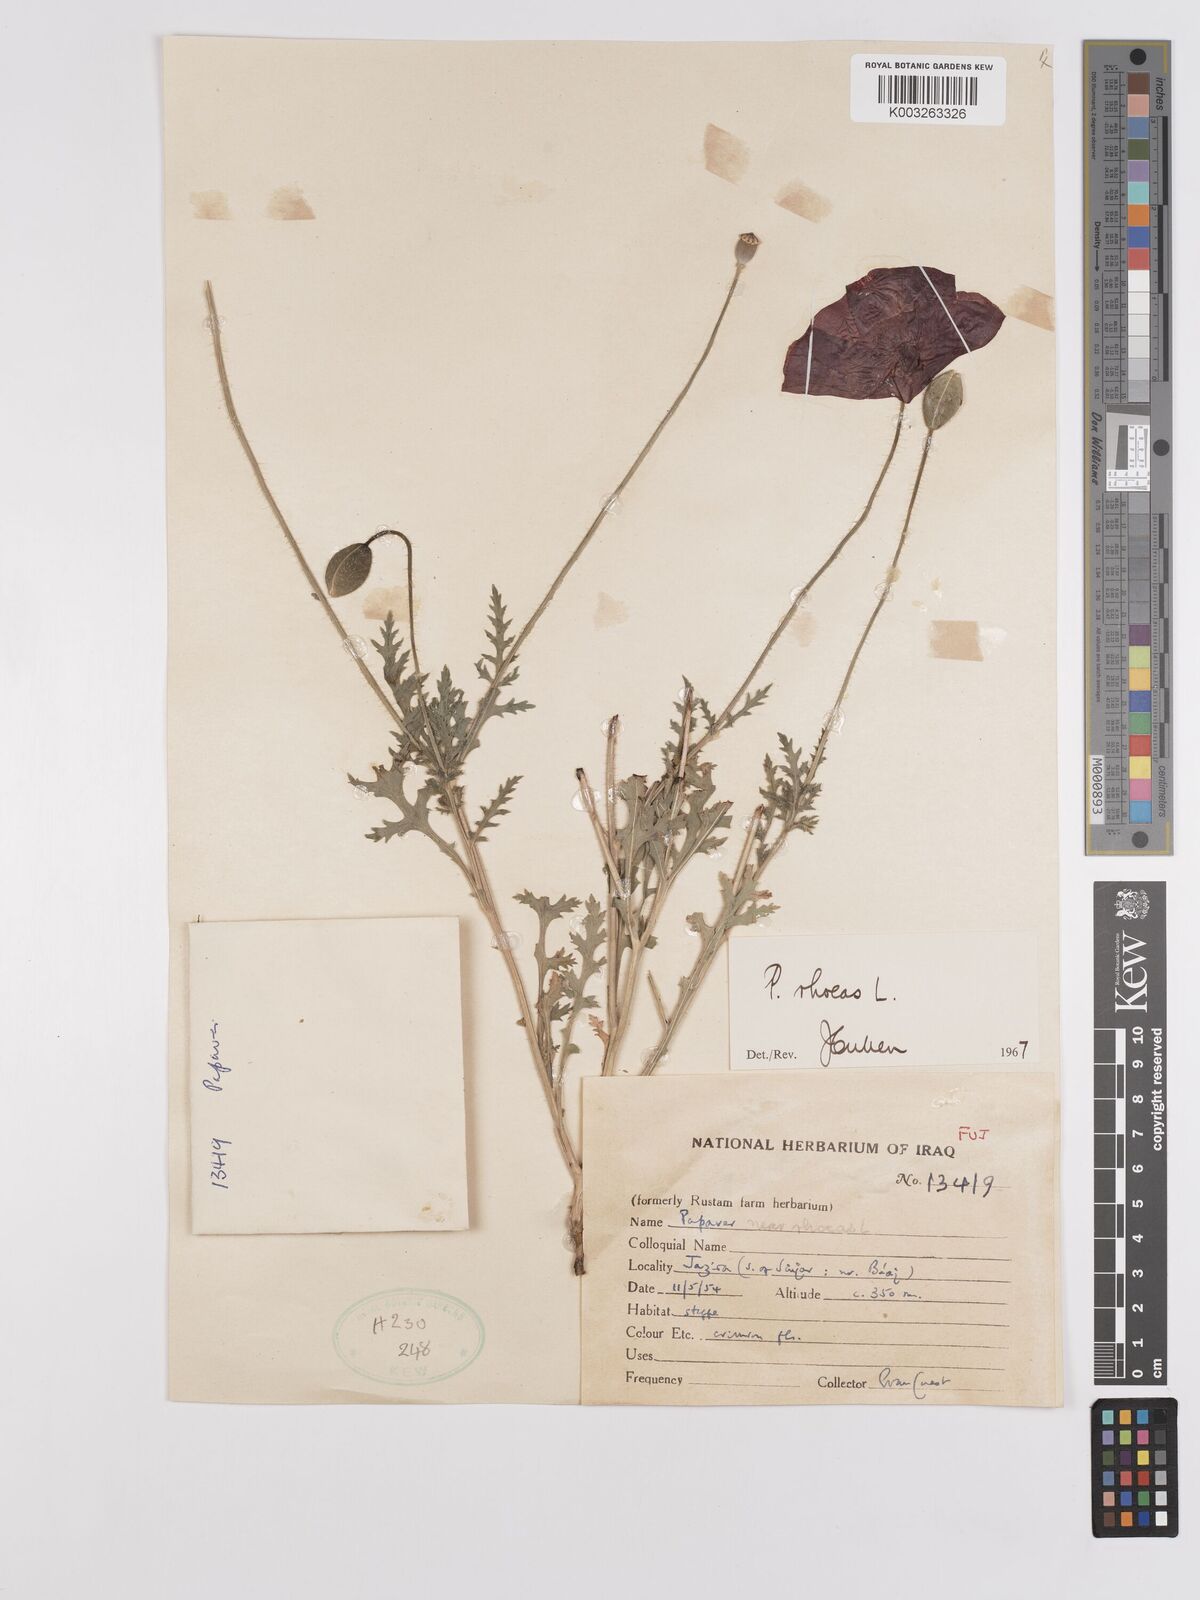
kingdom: Plantae
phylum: Tracheophyta
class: Magnoliopsida
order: Ranunculales
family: Papaveraceae
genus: Papaver
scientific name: Papaver rhoeas
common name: Corn poppy
